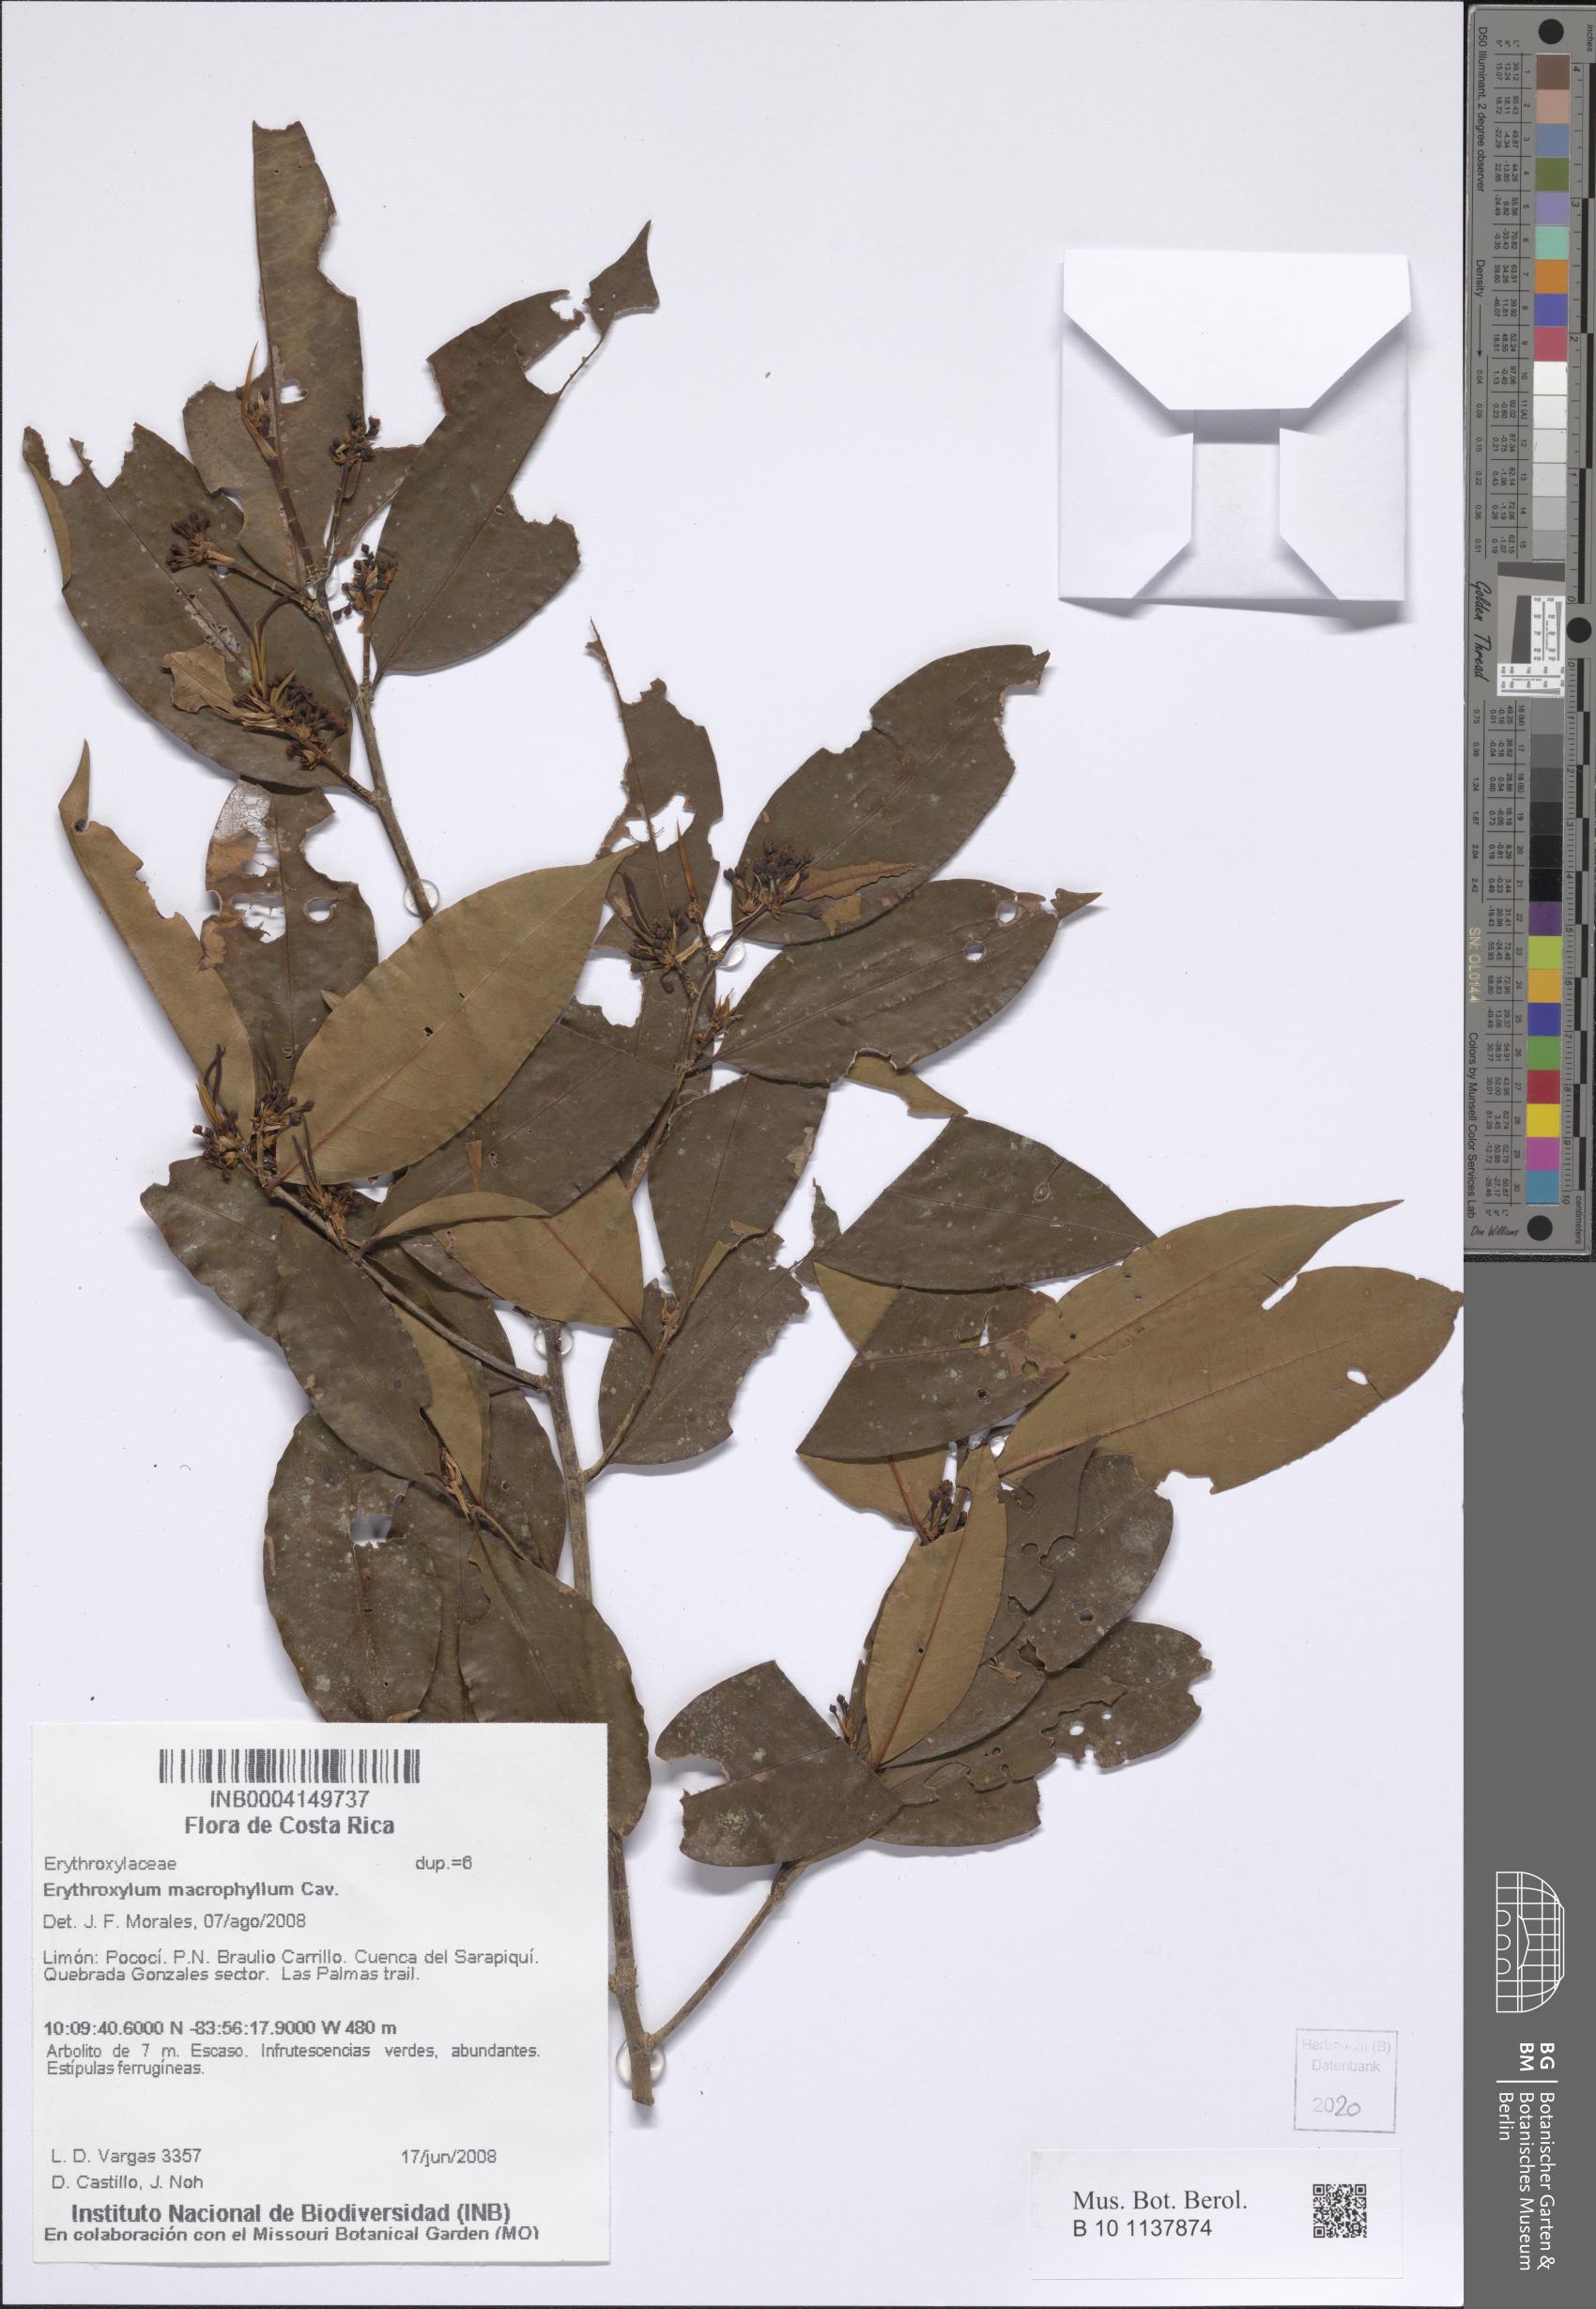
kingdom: Plantae
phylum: Tracheophyta
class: Magnoliopsida
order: Malpighiales
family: Erythroxylaceae
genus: Erythroxylum
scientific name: Erythroxylum macrophyllum
